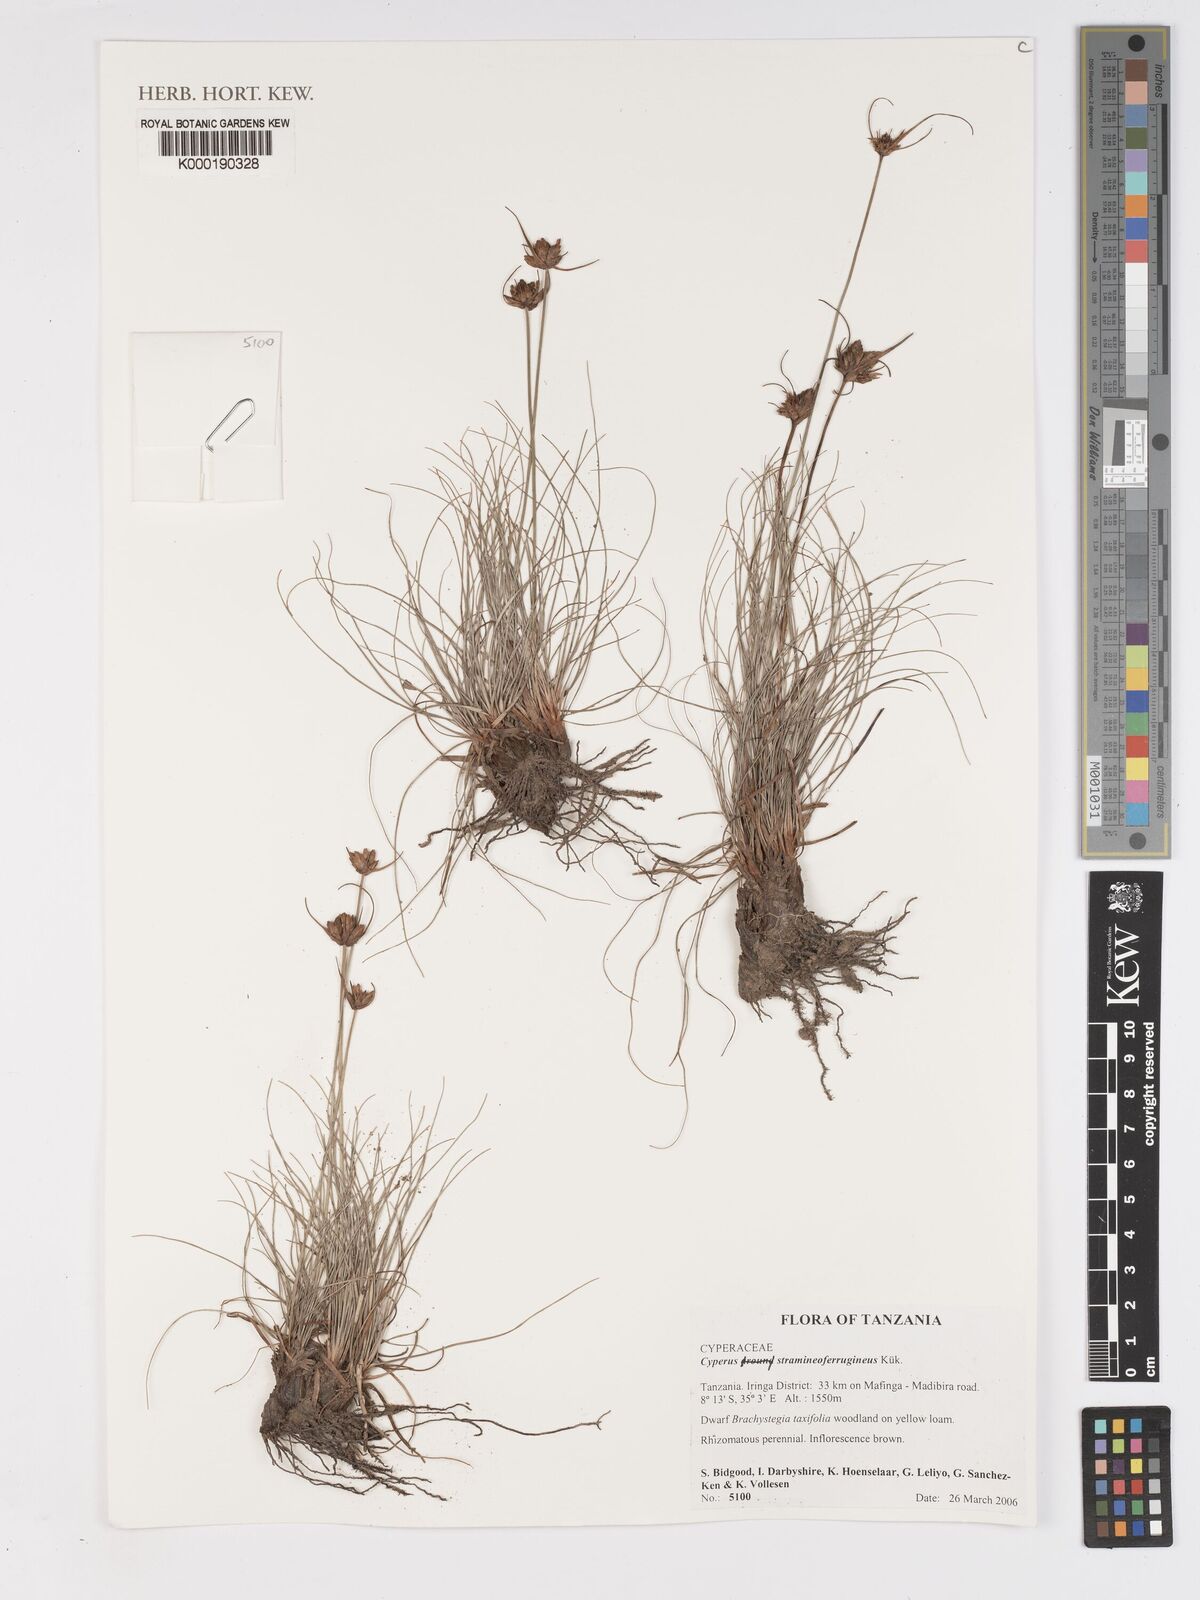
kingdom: Plantae
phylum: Tracheophyta
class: Liliopsida
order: Poales
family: Cyperaceae
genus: Cyperus
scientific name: Cyperus
